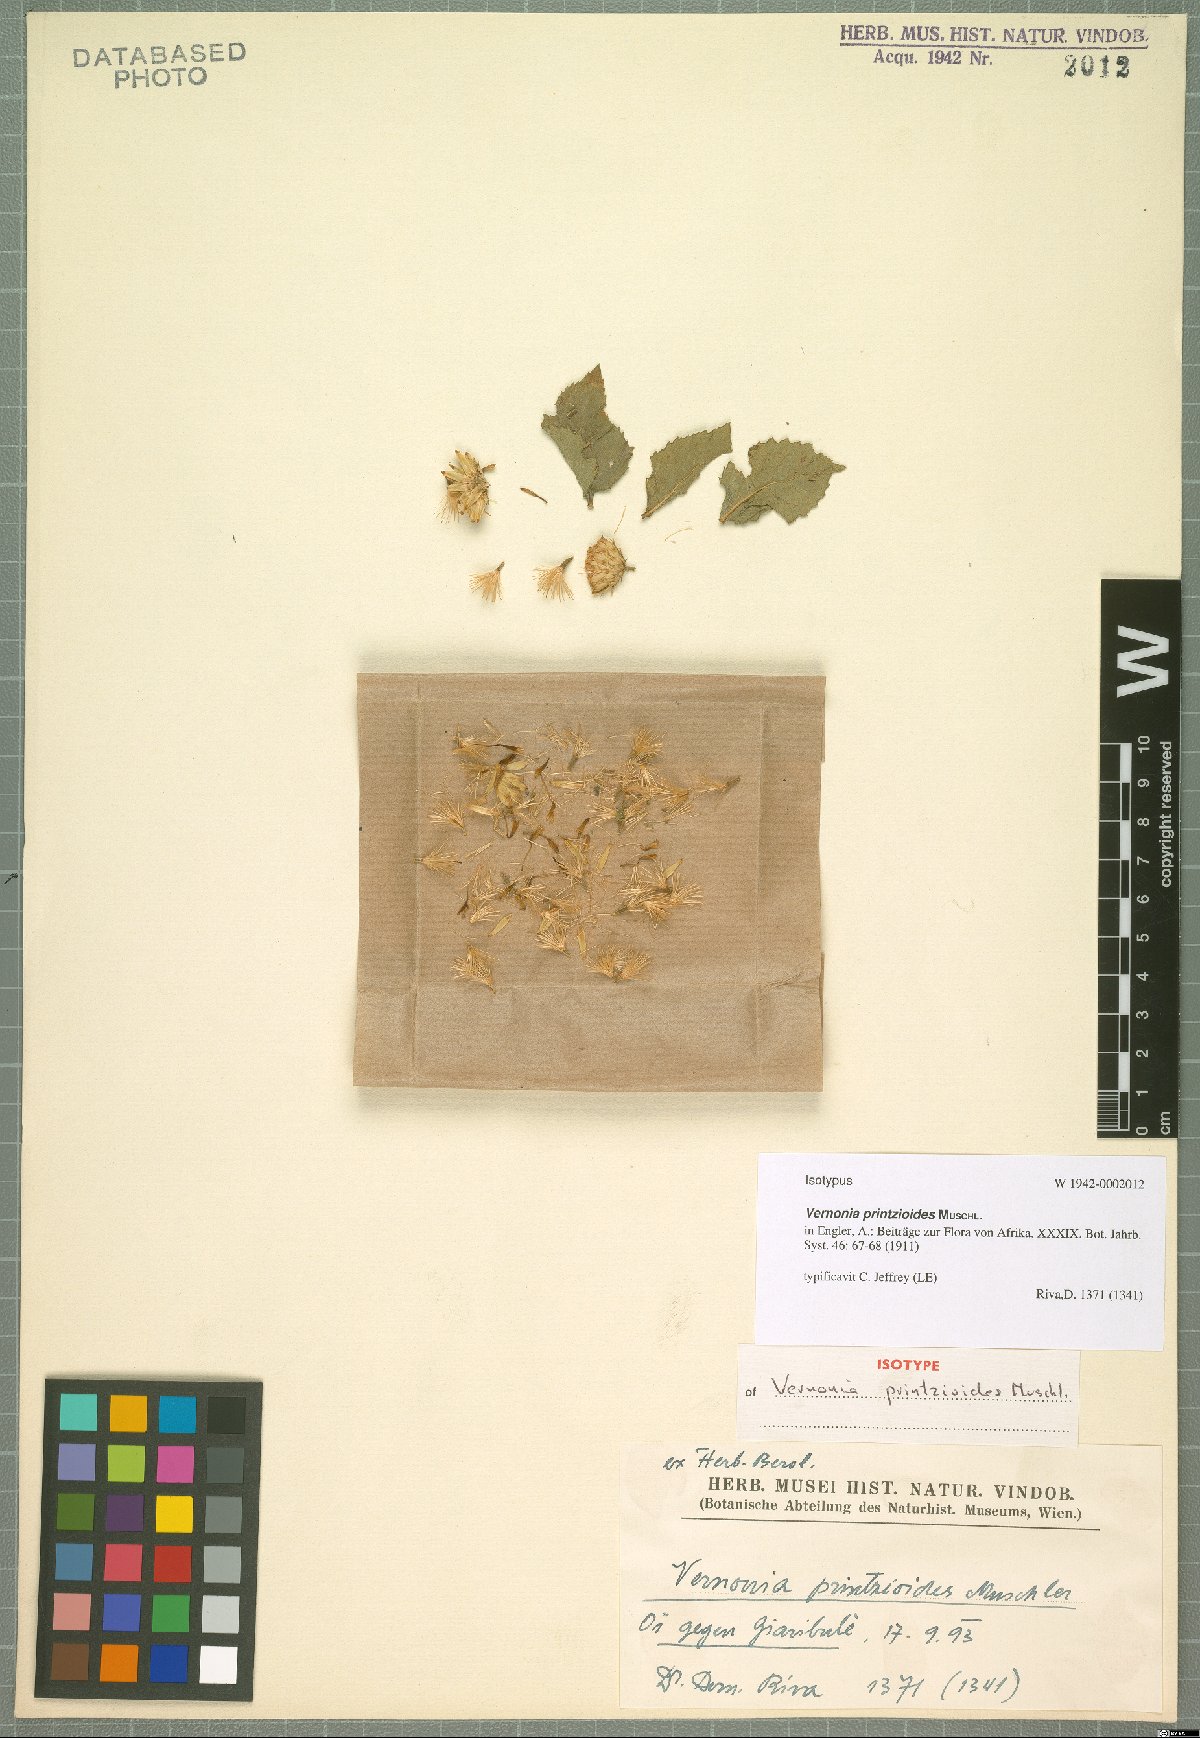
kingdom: Plantae
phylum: Tracheophyta
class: Magnoliopsida
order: Asterales
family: Asteraceae
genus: Orbivestus
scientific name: Orbivestus printzioides
